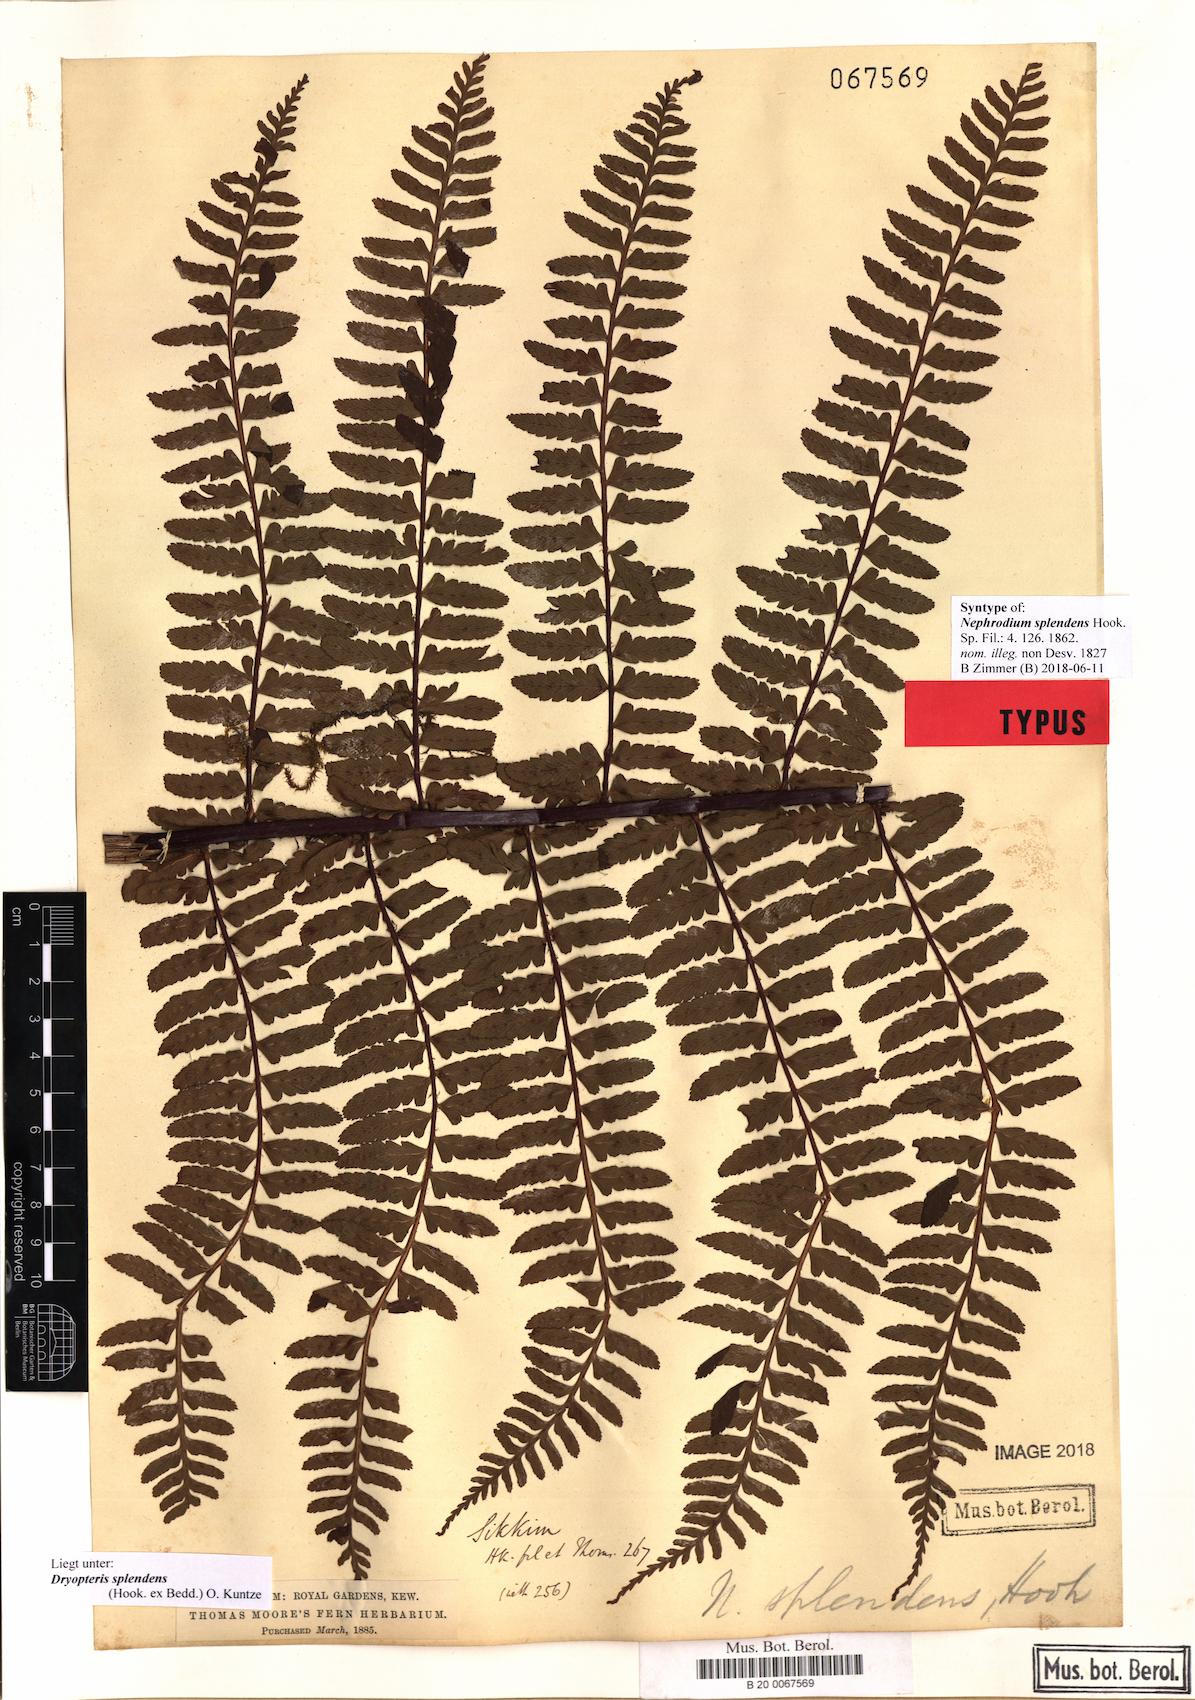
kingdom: Plantae
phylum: Tracheophyta
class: Polypodiopsida
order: Polypodiales
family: Dryopteridaceae
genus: Dryopteris
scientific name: Dryopteris splendens
